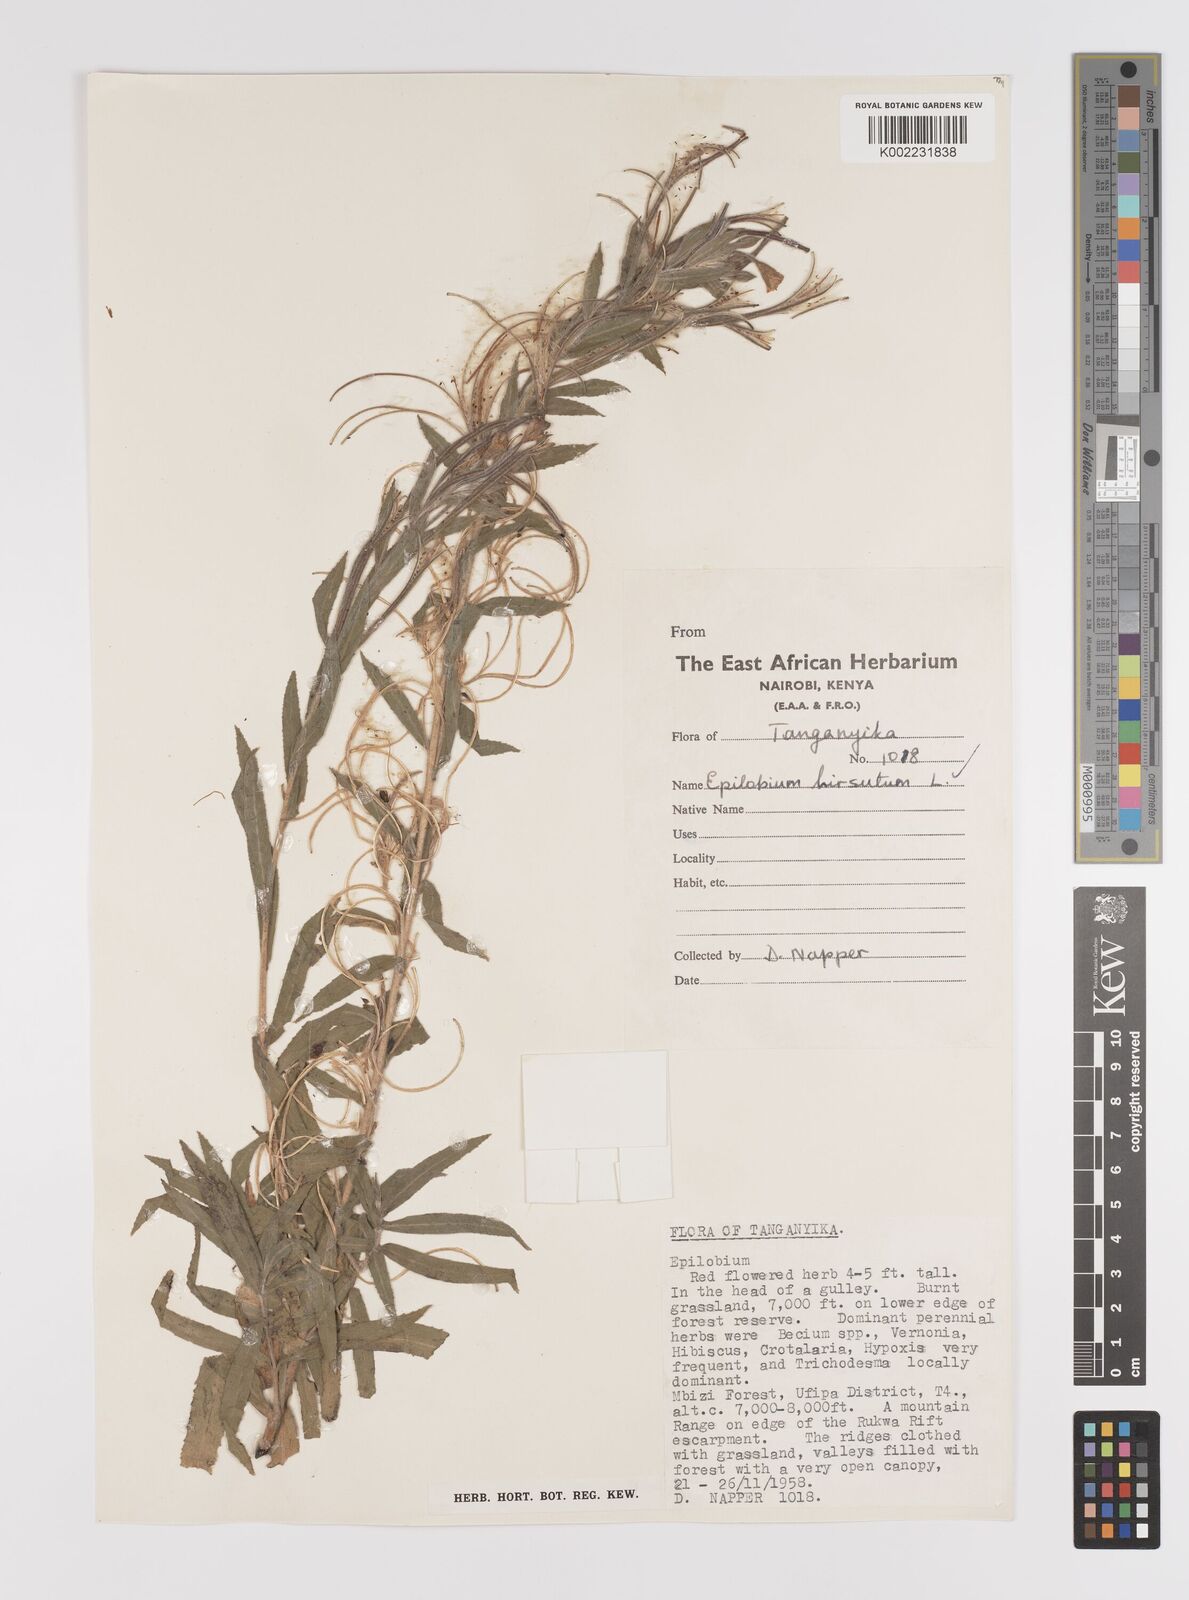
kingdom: Plantae
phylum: Tracheophyta
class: Magnoliopsida
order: Myrtales
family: Onagraceae
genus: Epilobium
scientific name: Epilobium hirsutum
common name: Great willowherb
